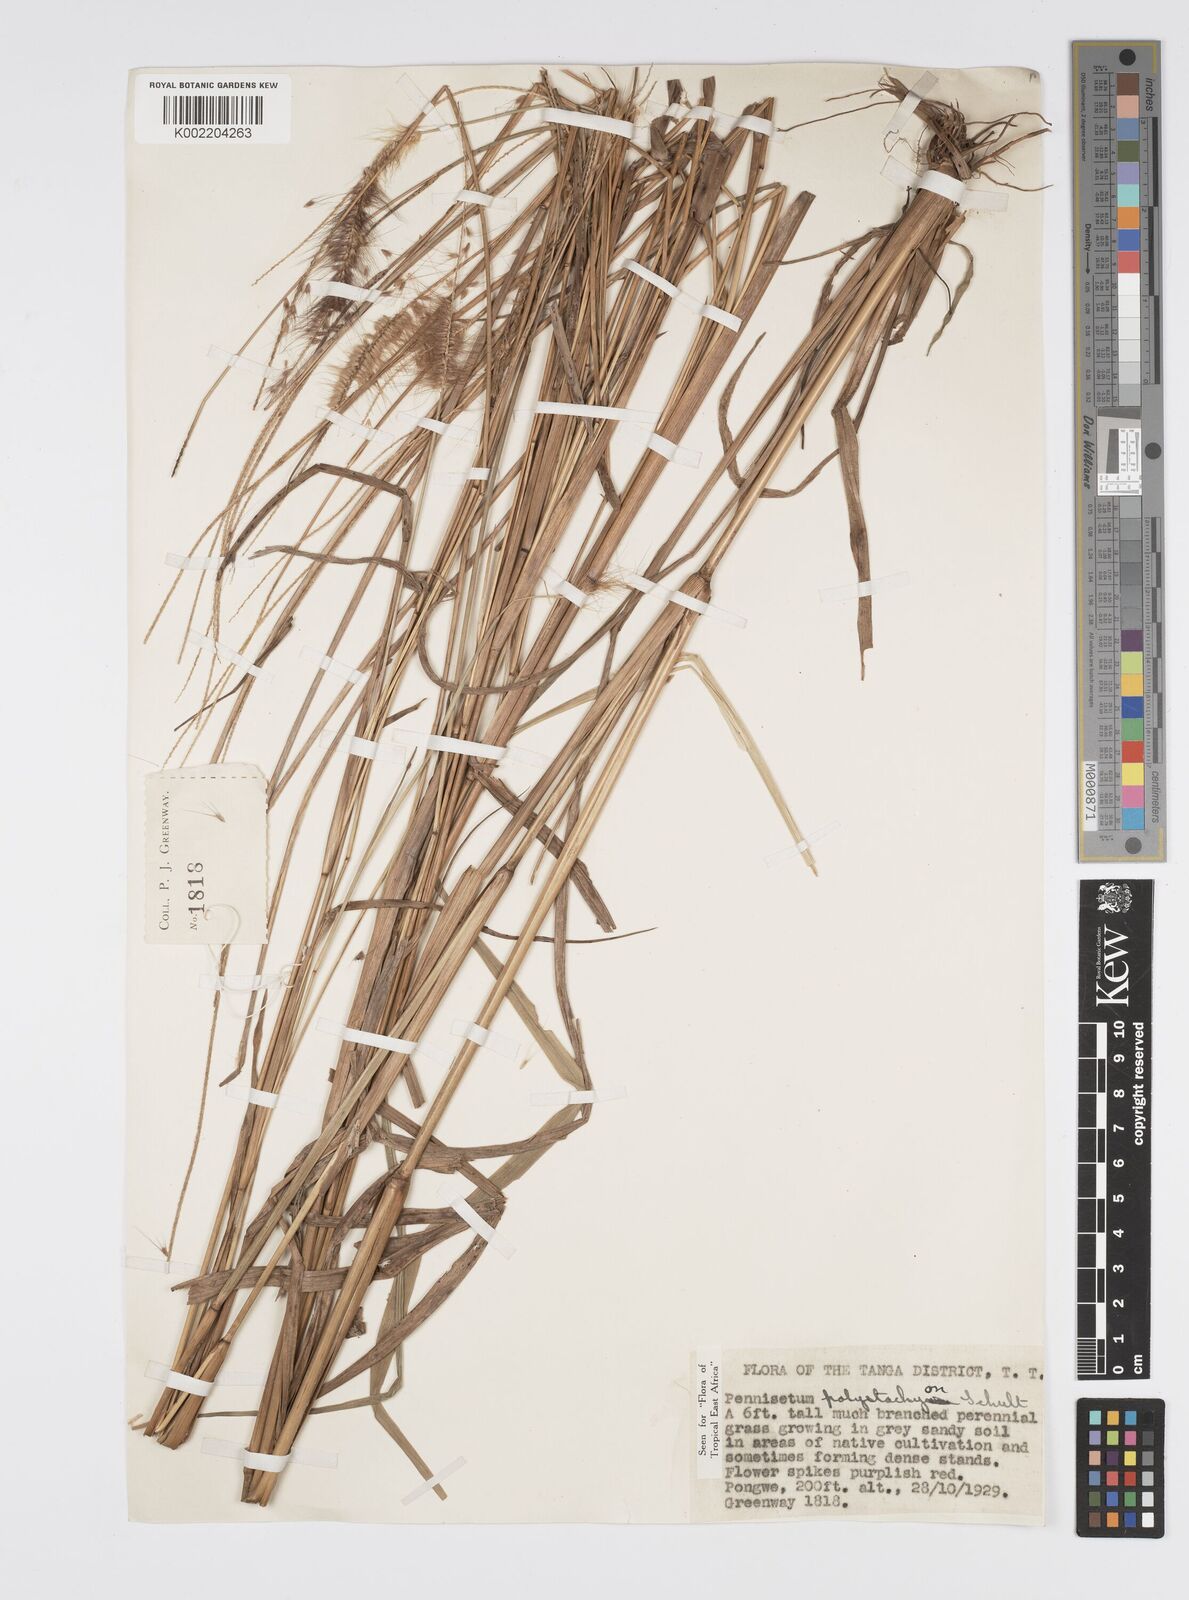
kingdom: Plantae
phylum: Tracheophyta
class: Liliopsida
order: Poales
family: Poaceae
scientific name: Poaceae
